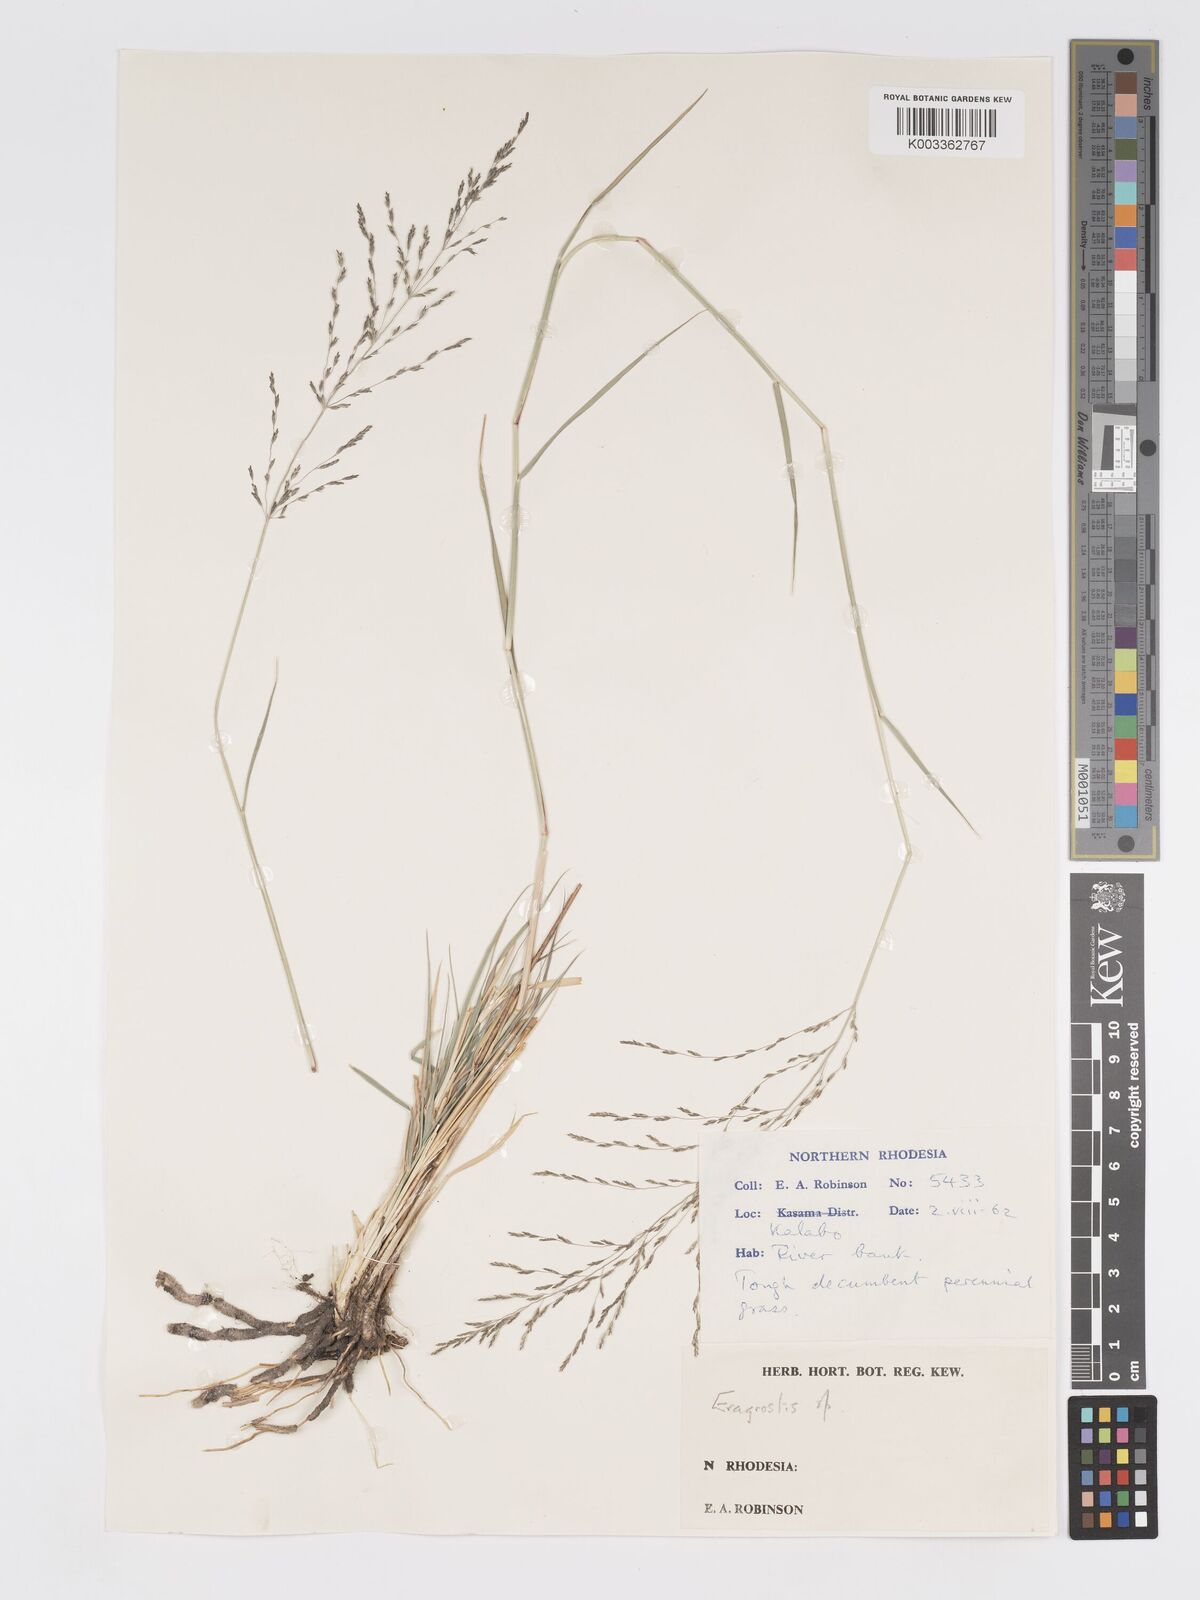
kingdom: Plantae
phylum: Tracheophyta
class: Liliopsida
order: Poales
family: Poaceae
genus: Eragrostis
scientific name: Eragrostis cylindriflora
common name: Cylinderflower lovegrass
